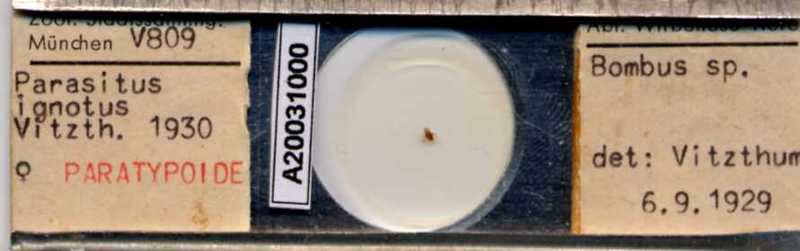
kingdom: Animalia
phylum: Arthropoda
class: Arachnida
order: Mesostigmata
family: Parasitidae
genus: Parasitellus
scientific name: Parasitellus ignotus
